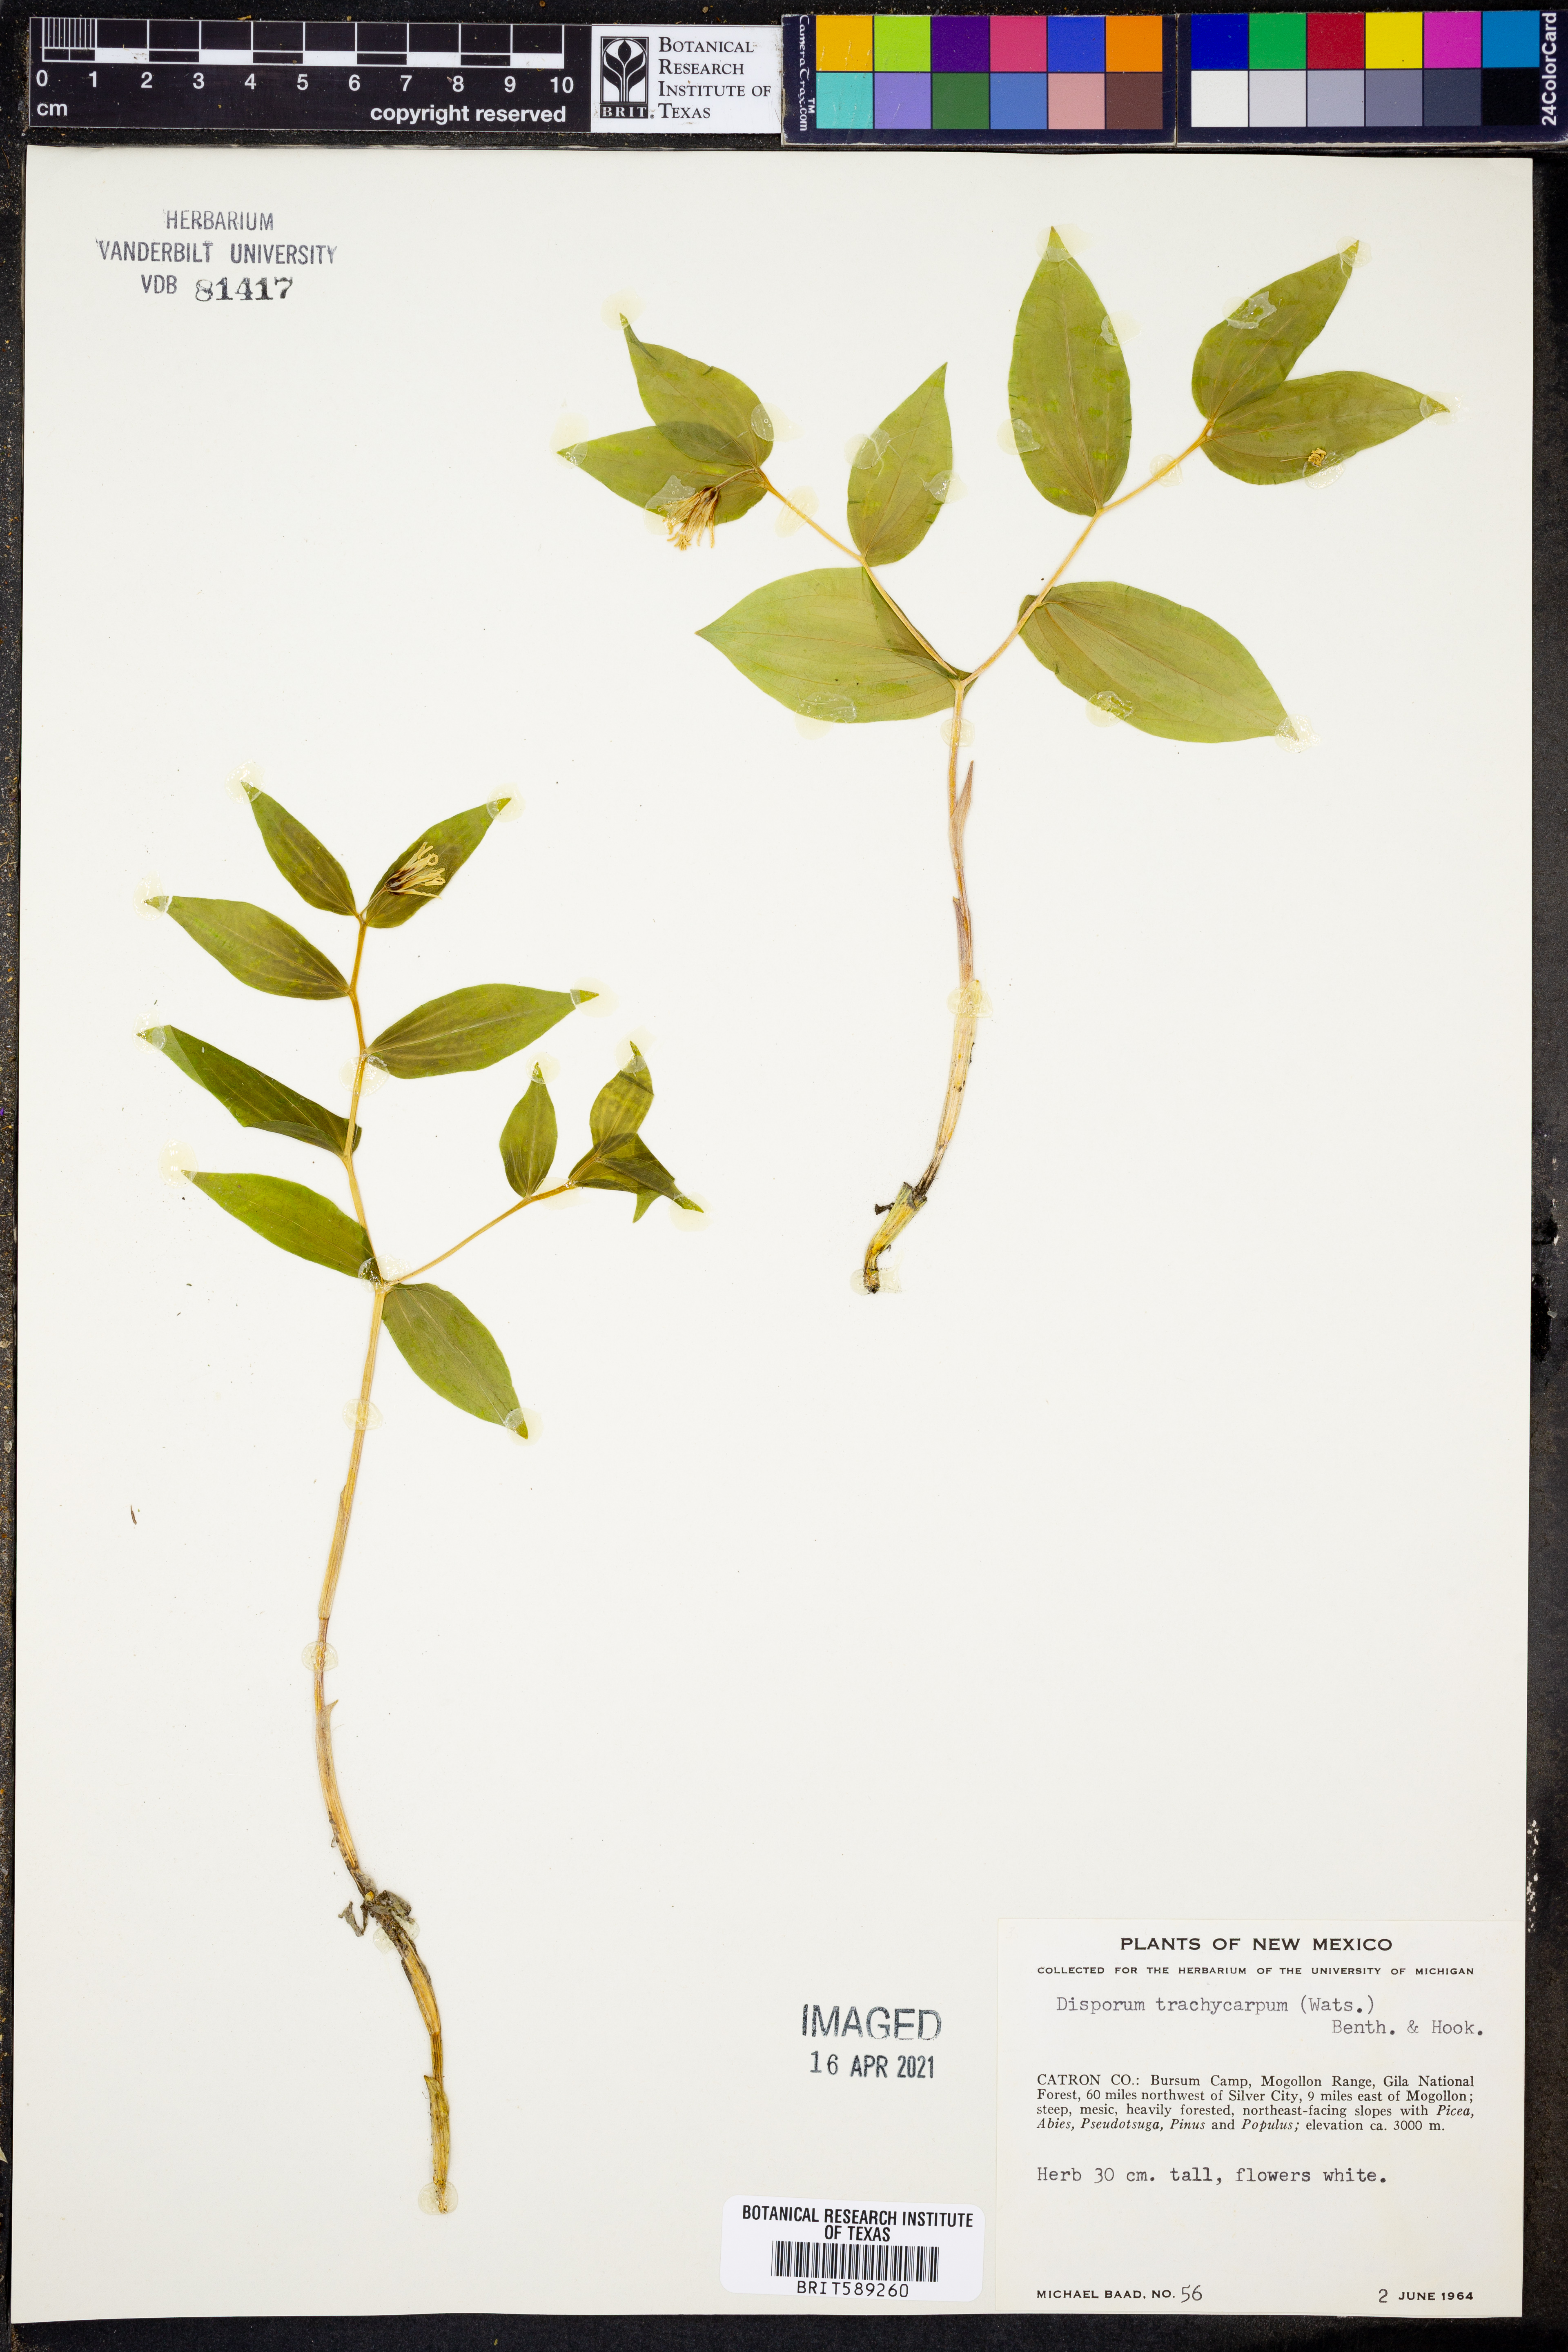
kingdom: Plantae
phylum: Tracheophyta
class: Liliopsida
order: Liliales
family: Liliaceae
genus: Prosartes
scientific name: Prosartes trachycarpa
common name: Rough-fruit fairy-bells
